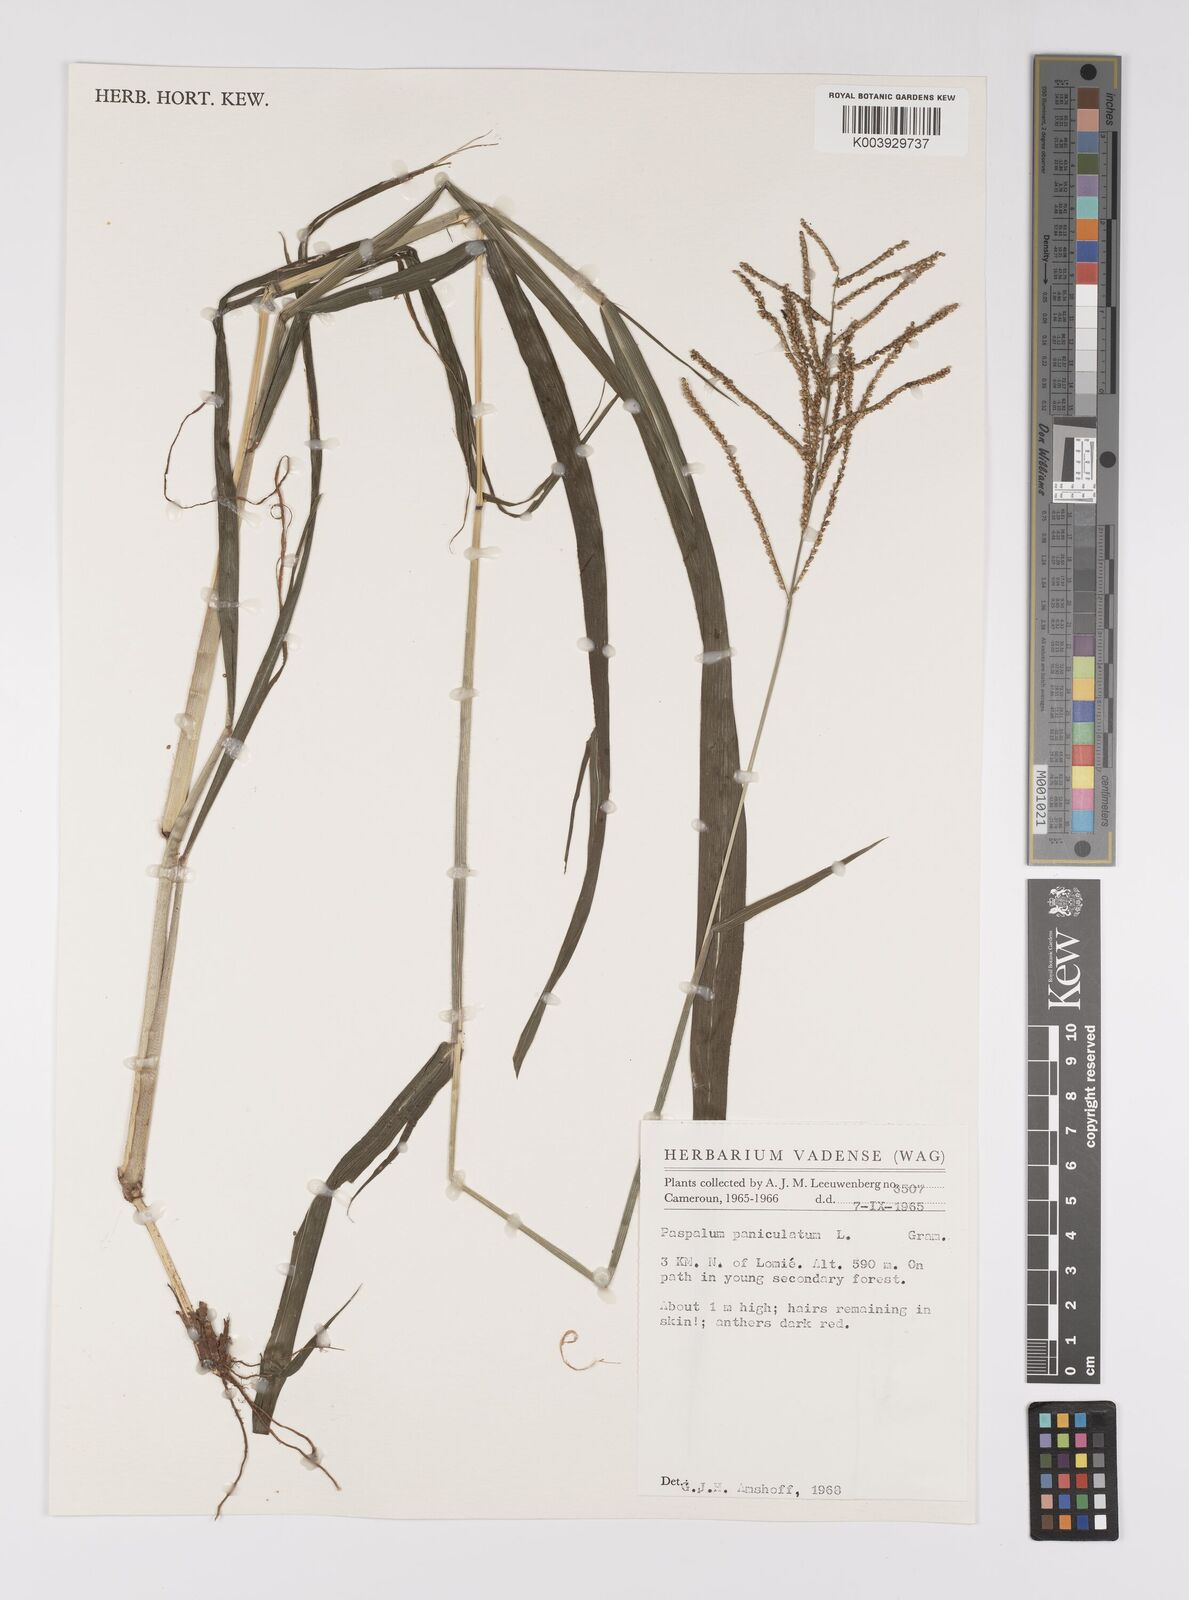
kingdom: Plantae
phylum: Tracheophyta
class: Liliopsida
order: Poales
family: Poaceae
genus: Paspalum
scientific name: Paspalum paniculatum
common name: Arrocillo
